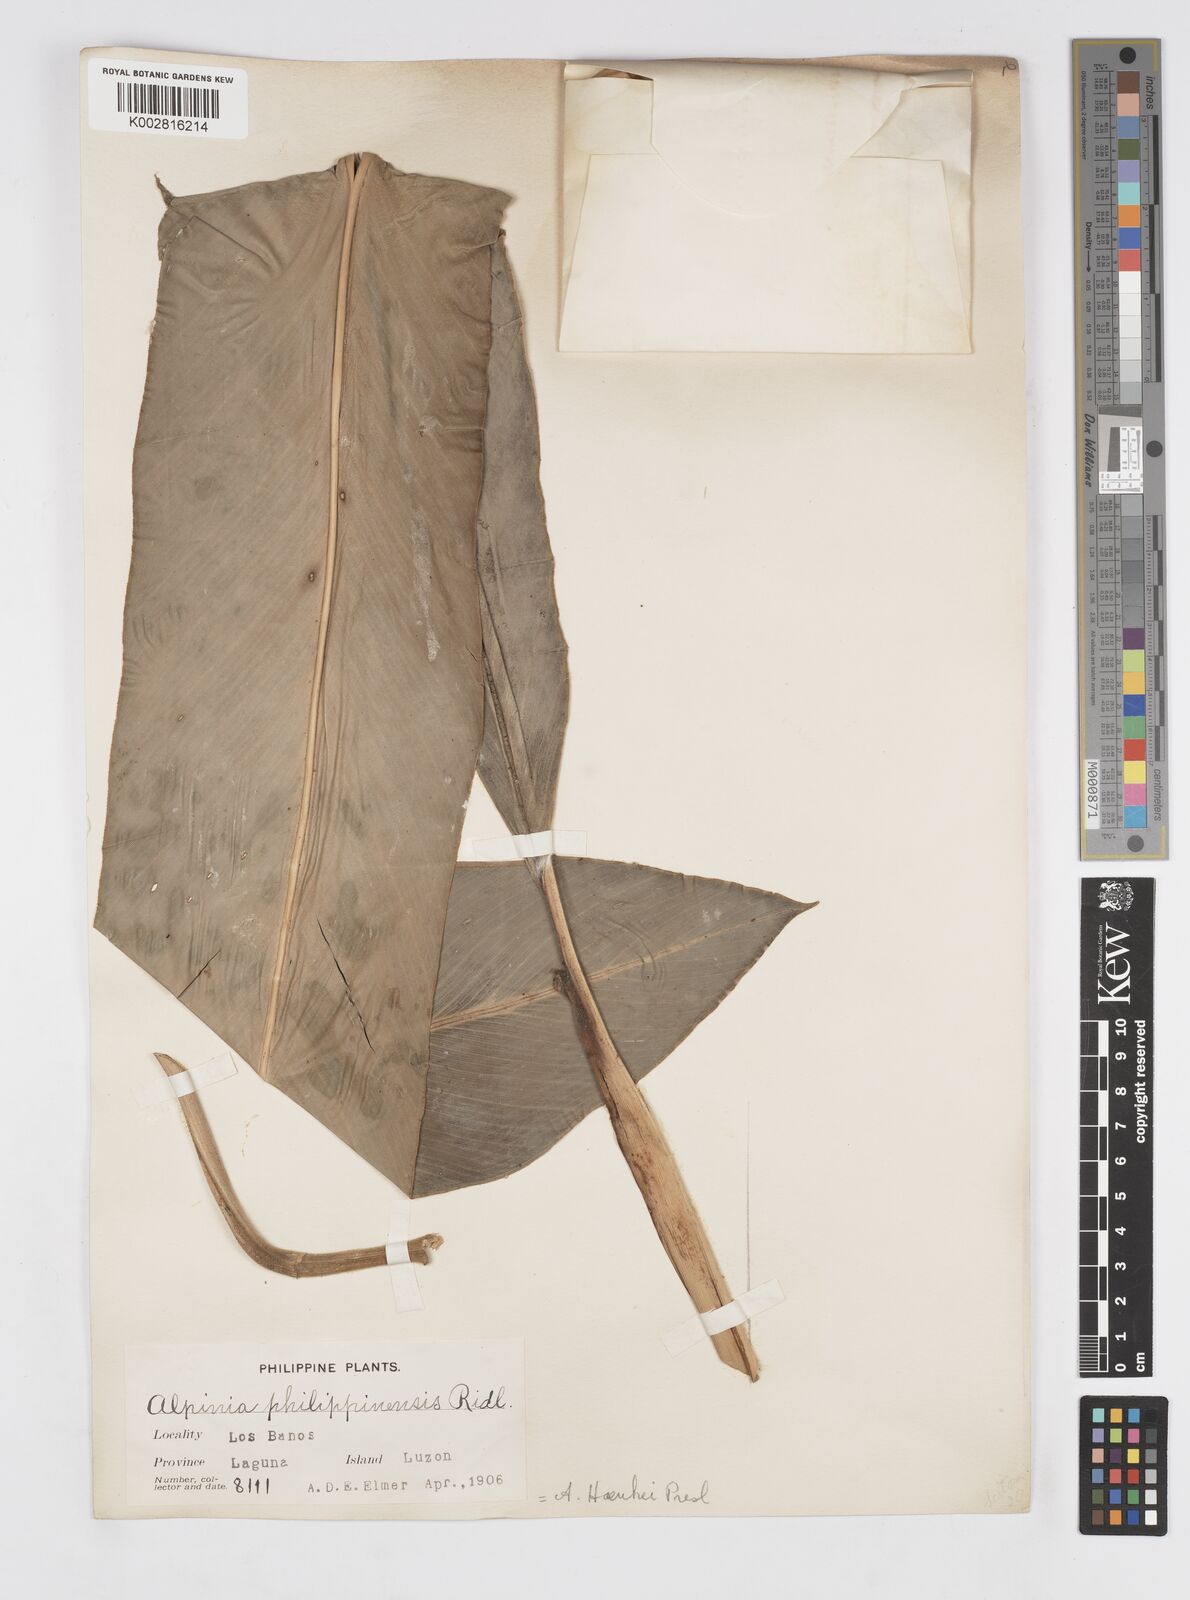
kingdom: Plantae
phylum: Tracheophyta
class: Liliopsida
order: Zingiberales
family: Zingiberaceae
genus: Alpinia
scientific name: Alpinia haenkei
